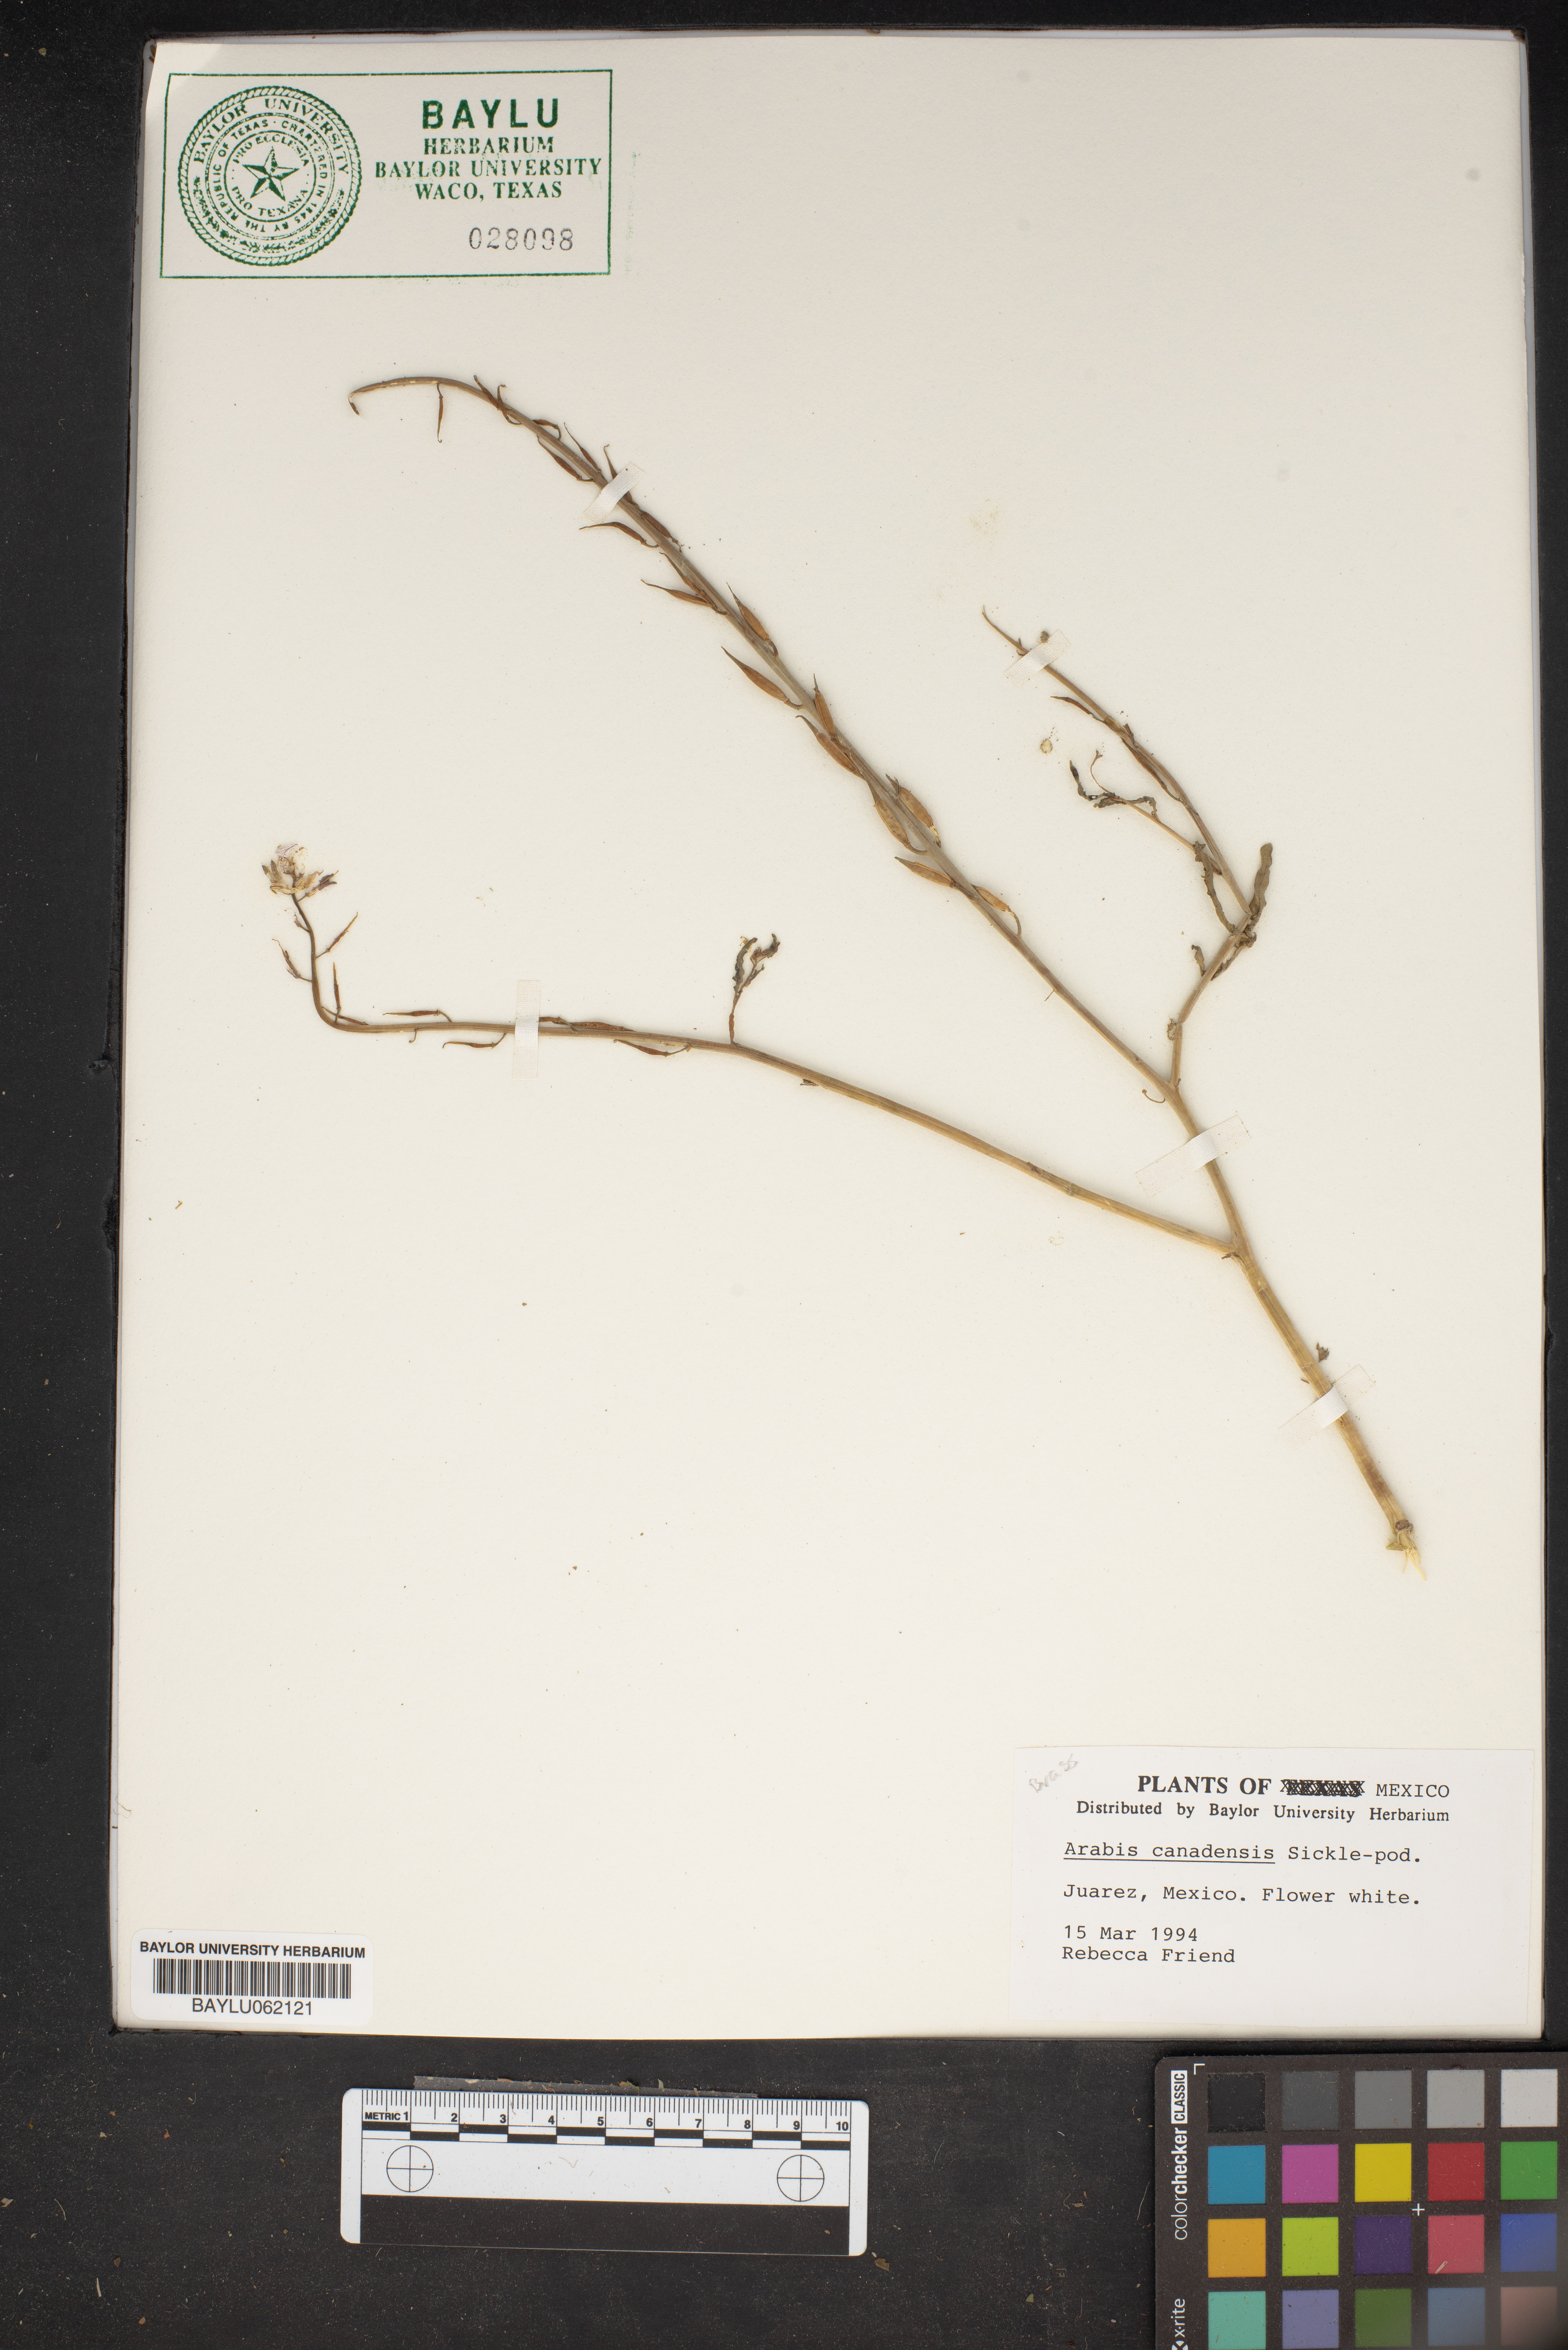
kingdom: Plantae
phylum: Tracheophyta
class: Magnoliopsida
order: Brassicales
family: Brassicaceae
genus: Borodinia
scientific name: Borodinia canadensis
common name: Sicklepod
